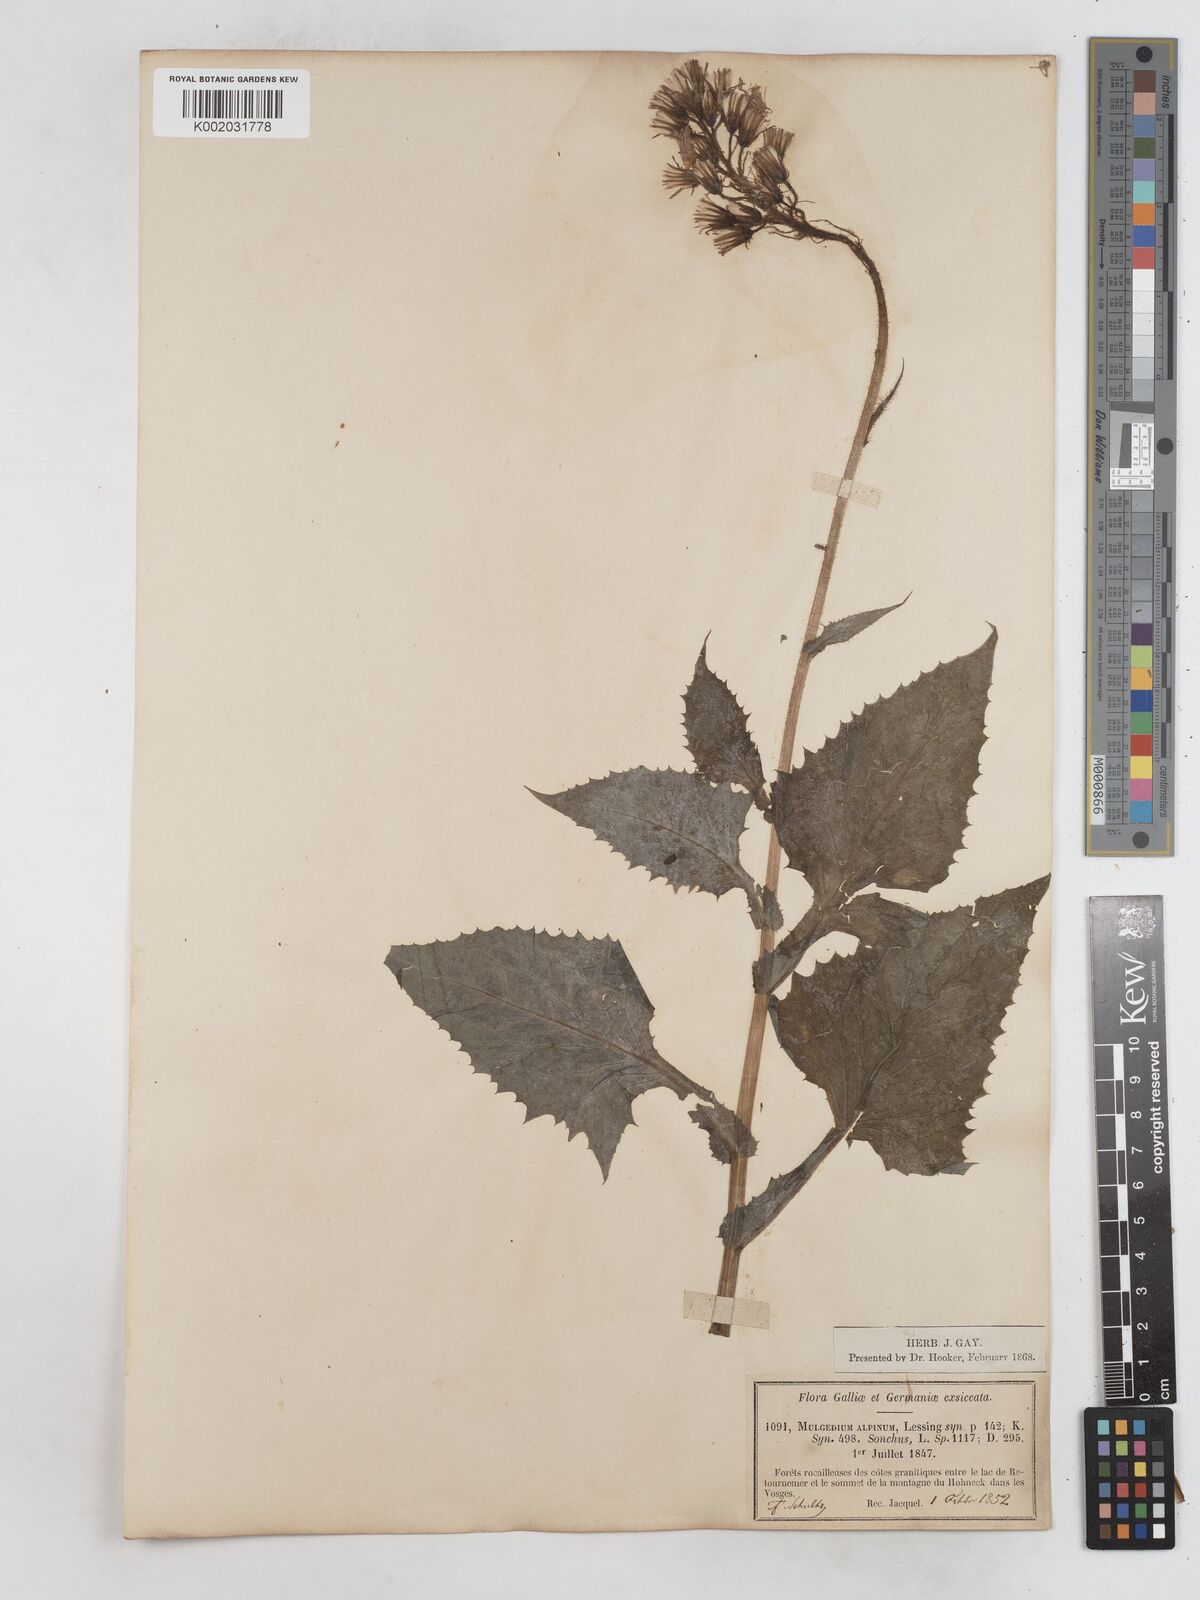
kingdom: Plantae
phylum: Tracheophyta
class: Magnoliopsida
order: Asterales
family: Asteraceae
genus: Cicerbita
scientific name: Cicerbita alpina
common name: Alpine blue-sow-thistle
